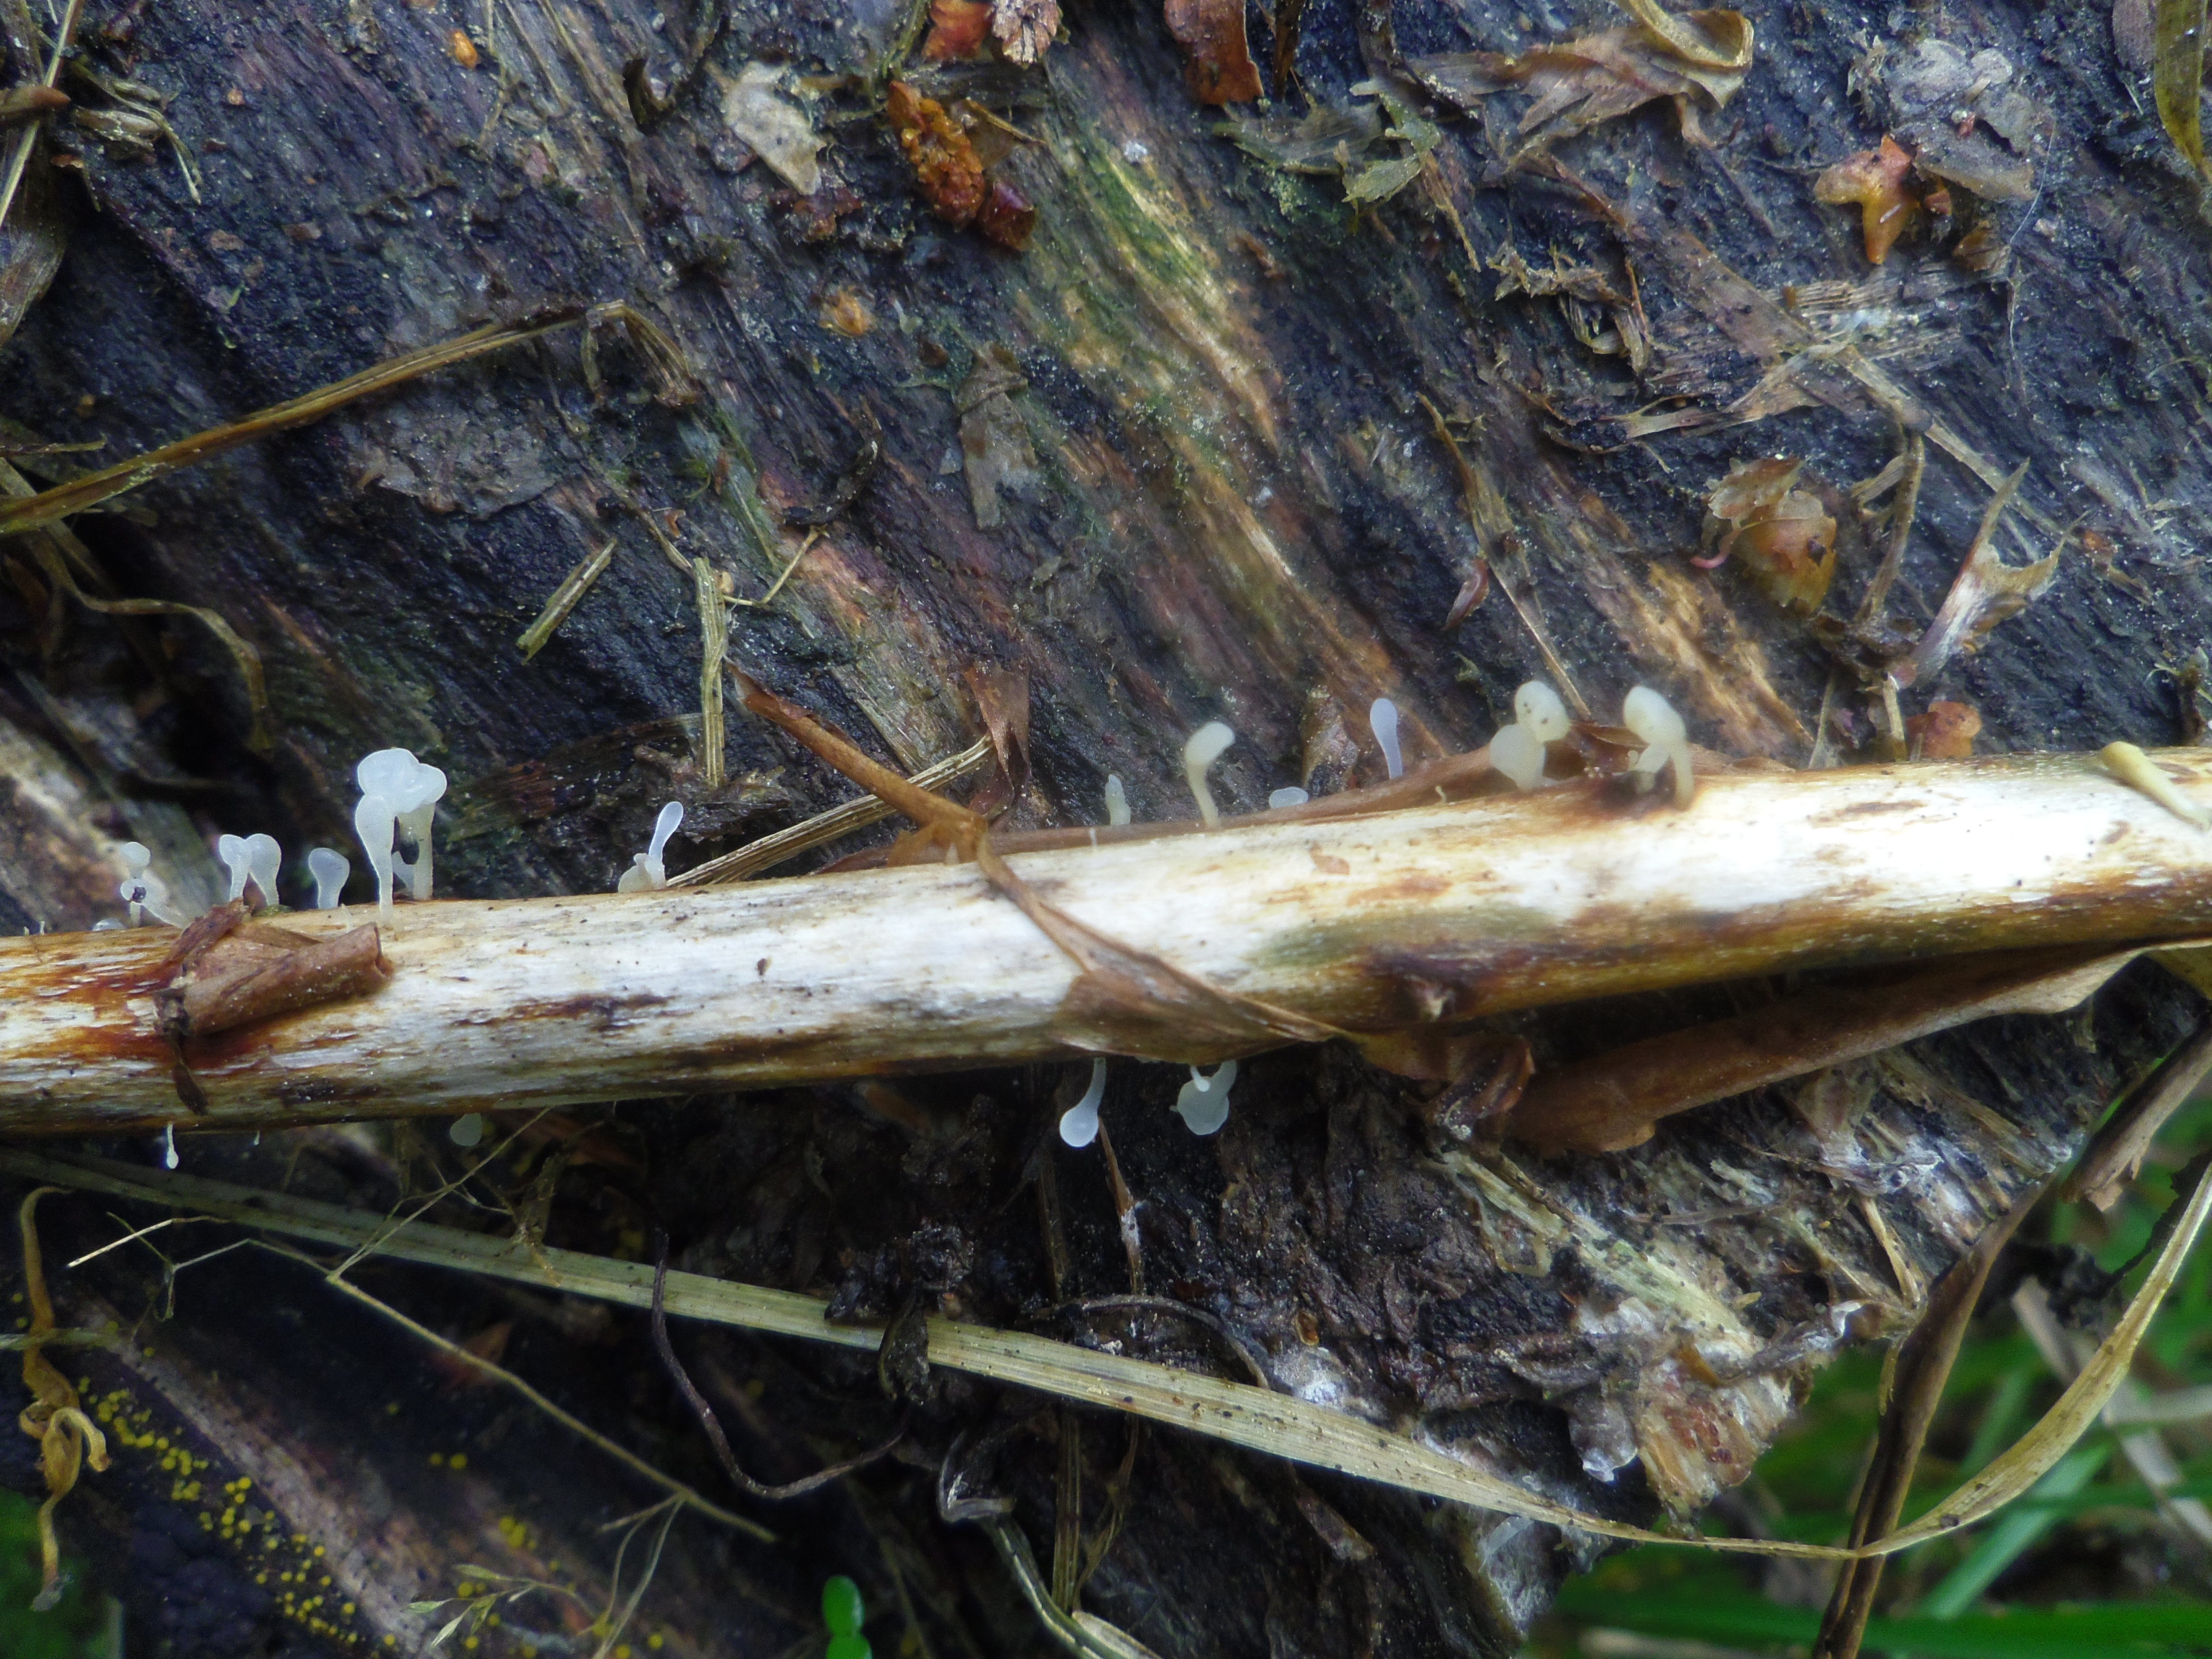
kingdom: Fungi
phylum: Basidiomycota
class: Agaricomycetes
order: Agaricales
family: Typhulaceae
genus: Typhula
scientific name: Typhula uncialis
